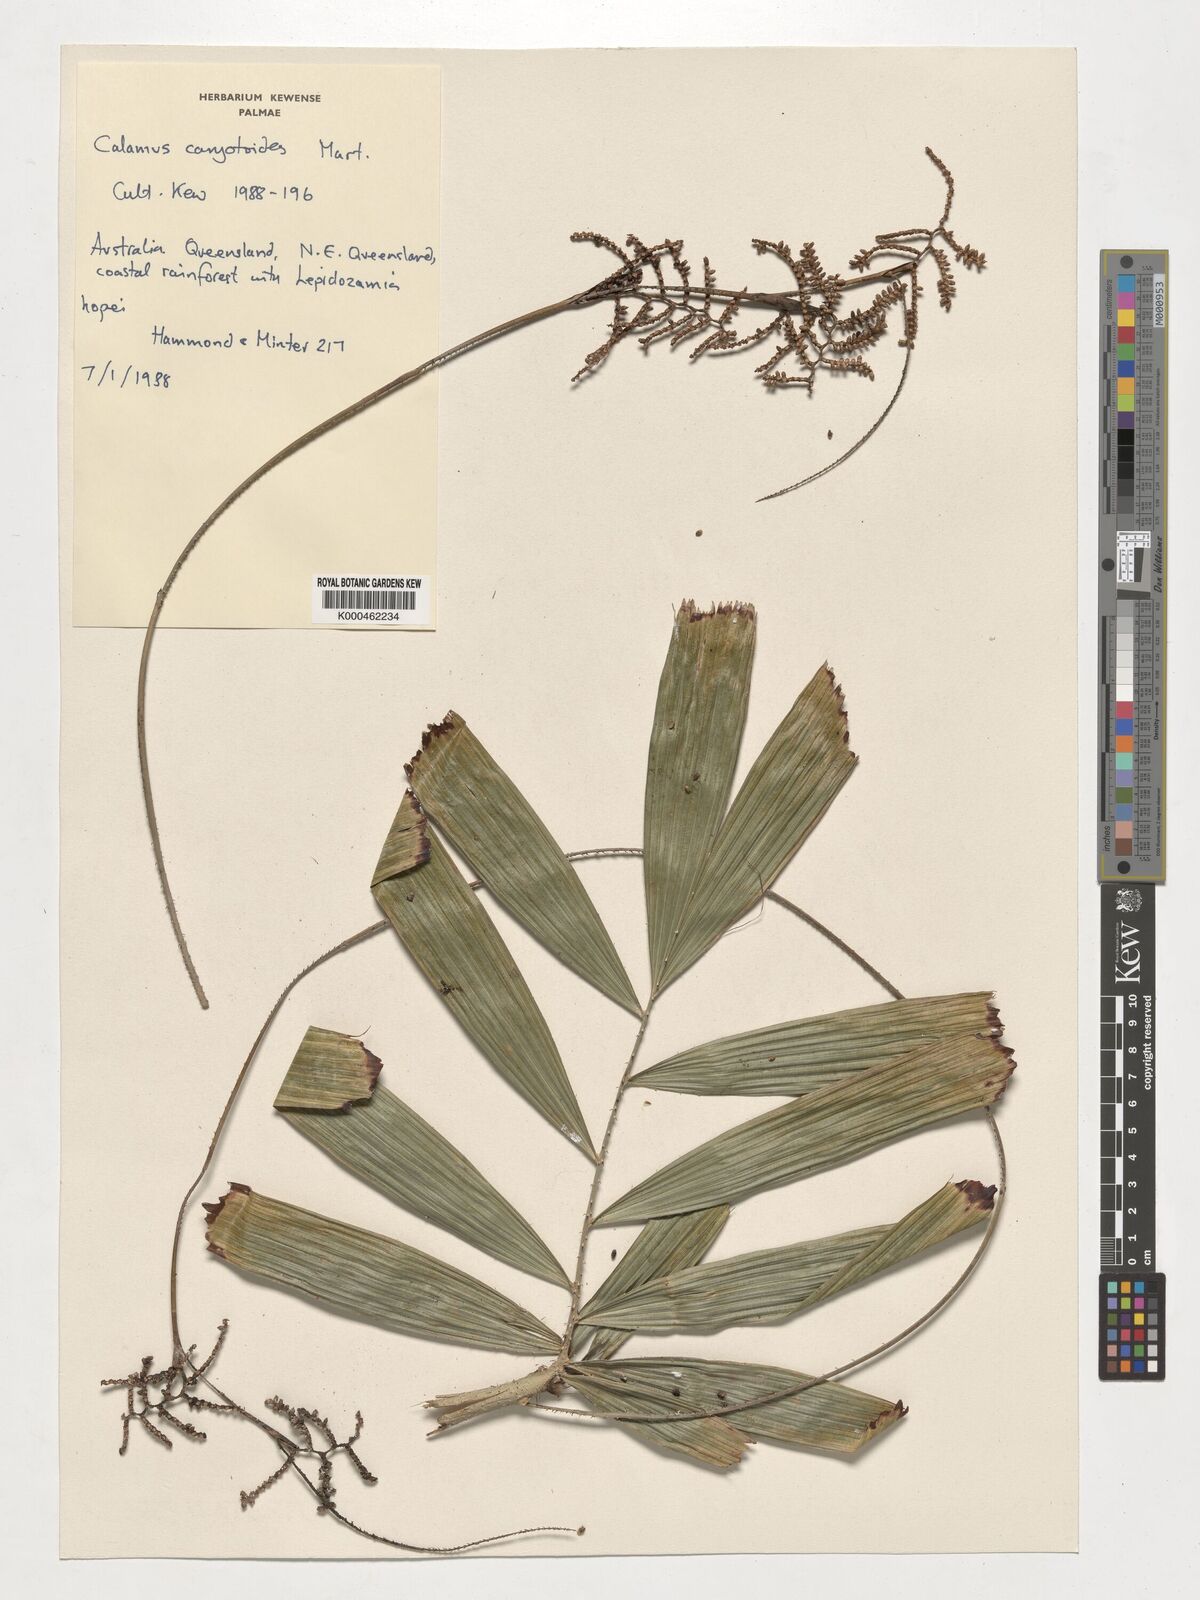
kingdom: Plantae
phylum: Tracheophyta
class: Liliopsida
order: Arecales
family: Arecaceae
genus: Calamus
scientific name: Calamus caryotoides
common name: Fishtail lawyer cane
